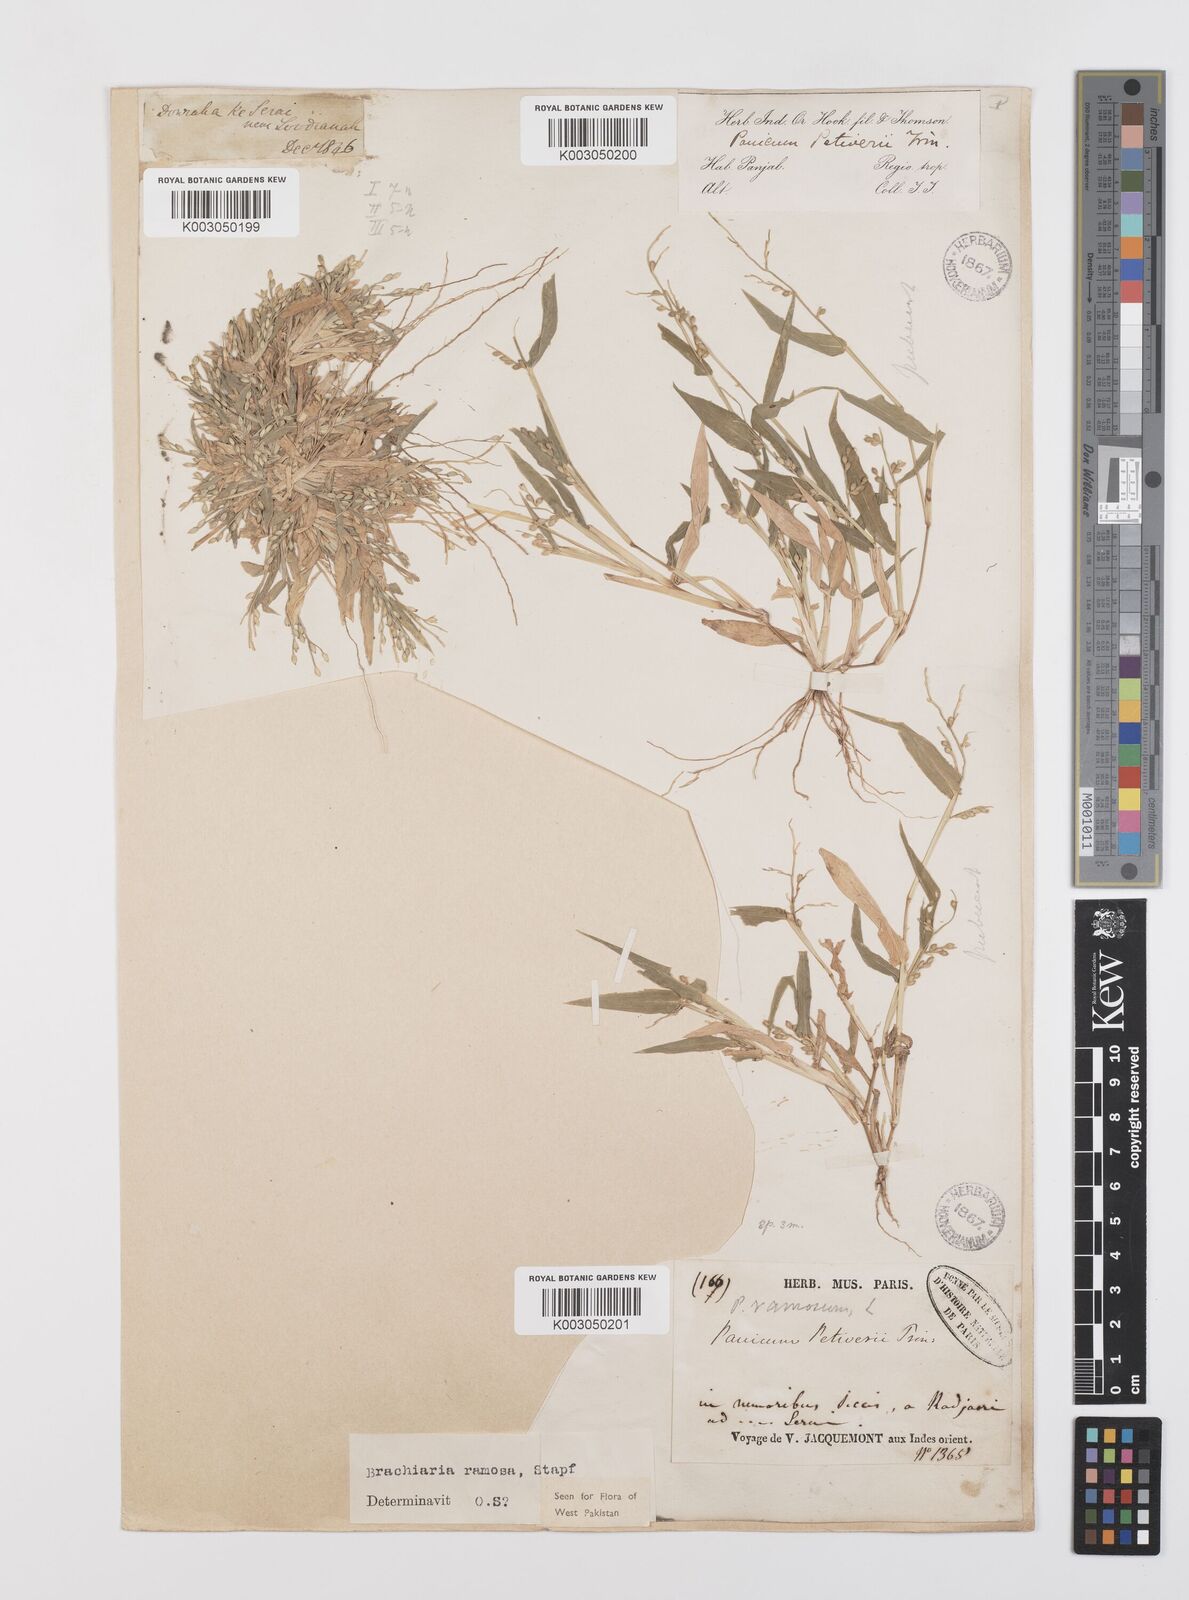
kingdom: Plantae
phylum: Tracheophyta
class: Liliopsida
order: Poales
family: Poaceae
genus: Urochloa
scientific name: Urochloa ramosa
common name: Browntop millet
